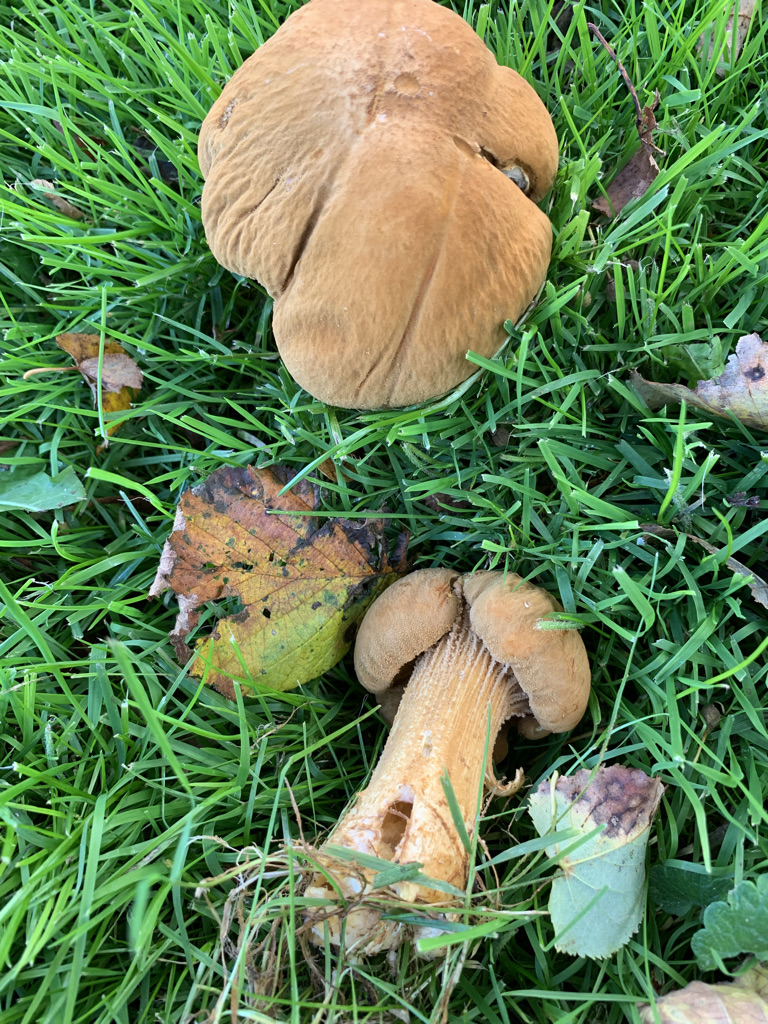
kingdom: Fungi
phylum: Basidiomycota
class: Agaricomycetes
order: Agaricales
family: Tricholomataceae
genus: Phaeolepiota
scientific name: Phaeolepiota aurea
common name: gyldenhat
